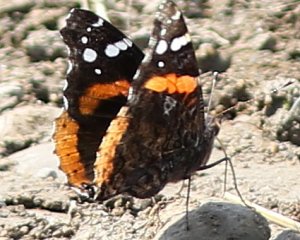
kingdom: Animalia
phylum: Arthropoda
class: Insecta
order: Lepidoptera
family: Nymphalidae
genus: Vanessa
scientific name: Vanessa atalanta
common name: Red Admiral
